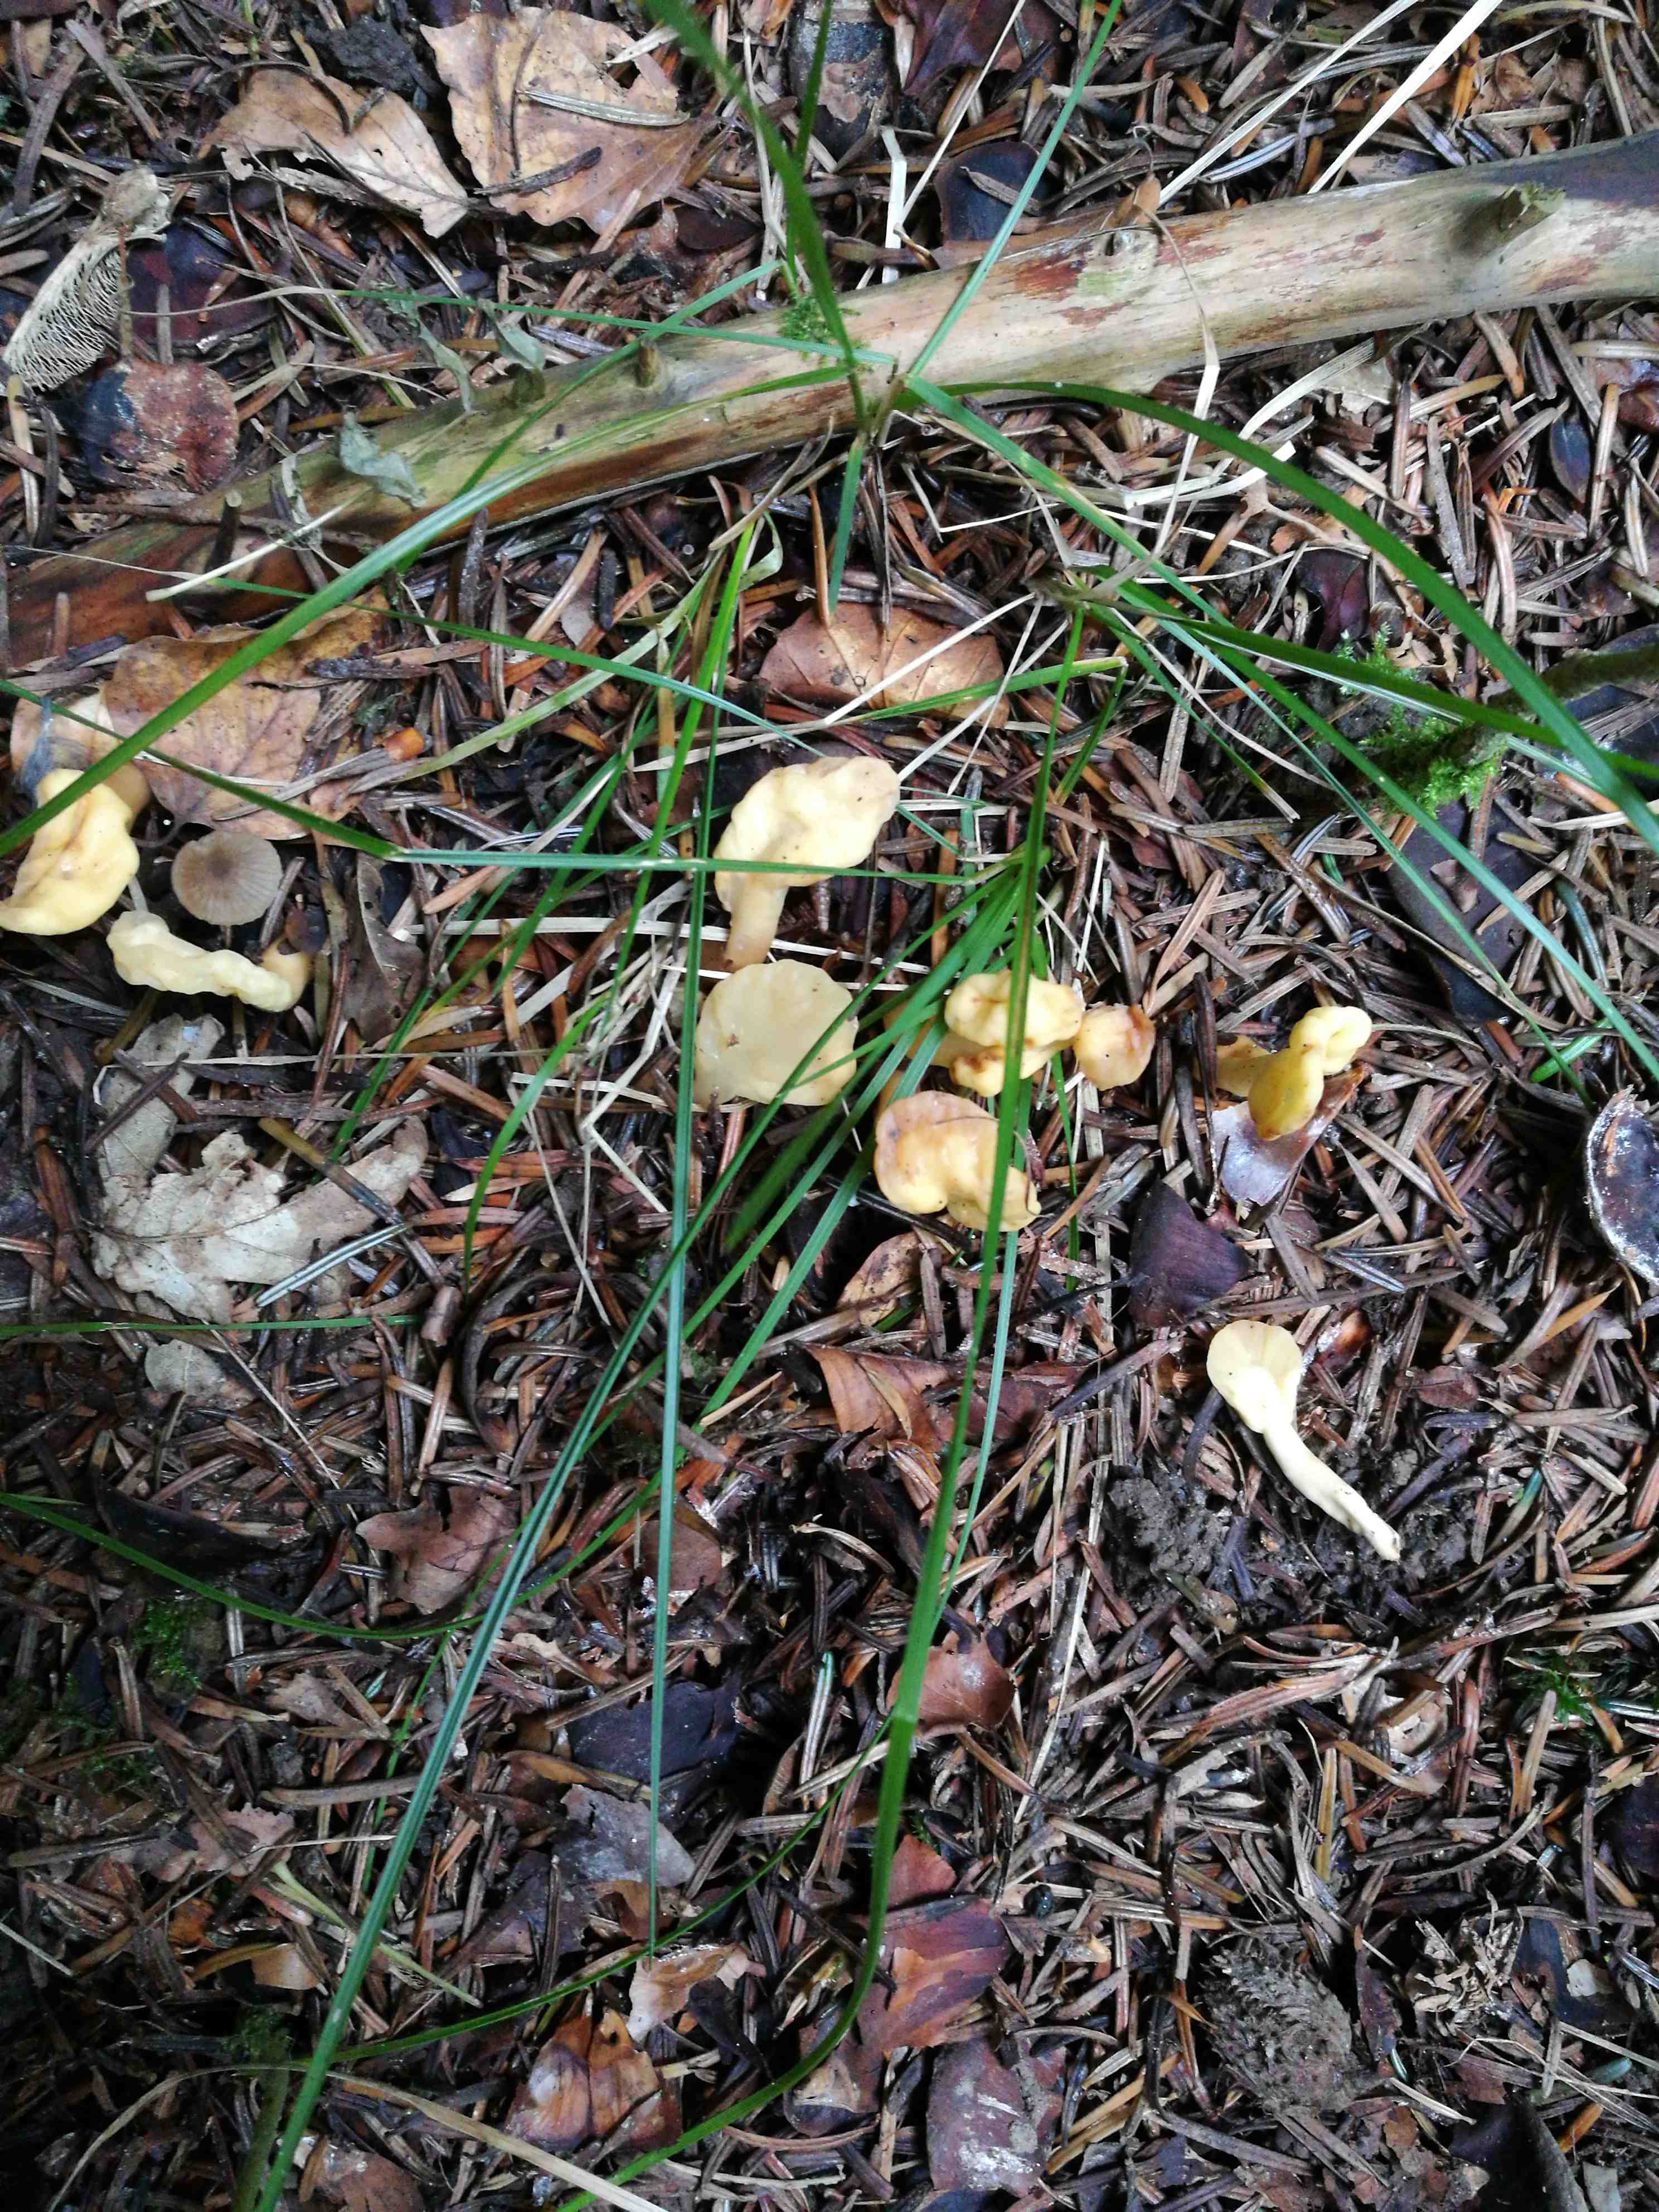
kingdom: Fungi
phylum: Ascomycota
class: Leotiomycetes
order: Rhytismatales
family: Cudoniaceae
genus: Spathularia
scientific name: Spathularia flavida
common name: gul spatelsvamp
